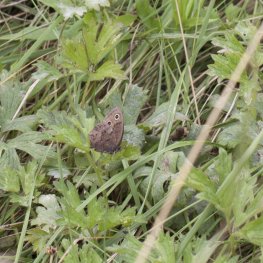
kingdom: Animalia
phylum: Arthropoda
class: Insecta
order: Lepidoptera
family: Nymphalidae
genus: Cercyonis
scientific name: Cercyonis pegala
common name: Common Wood-Nymph
